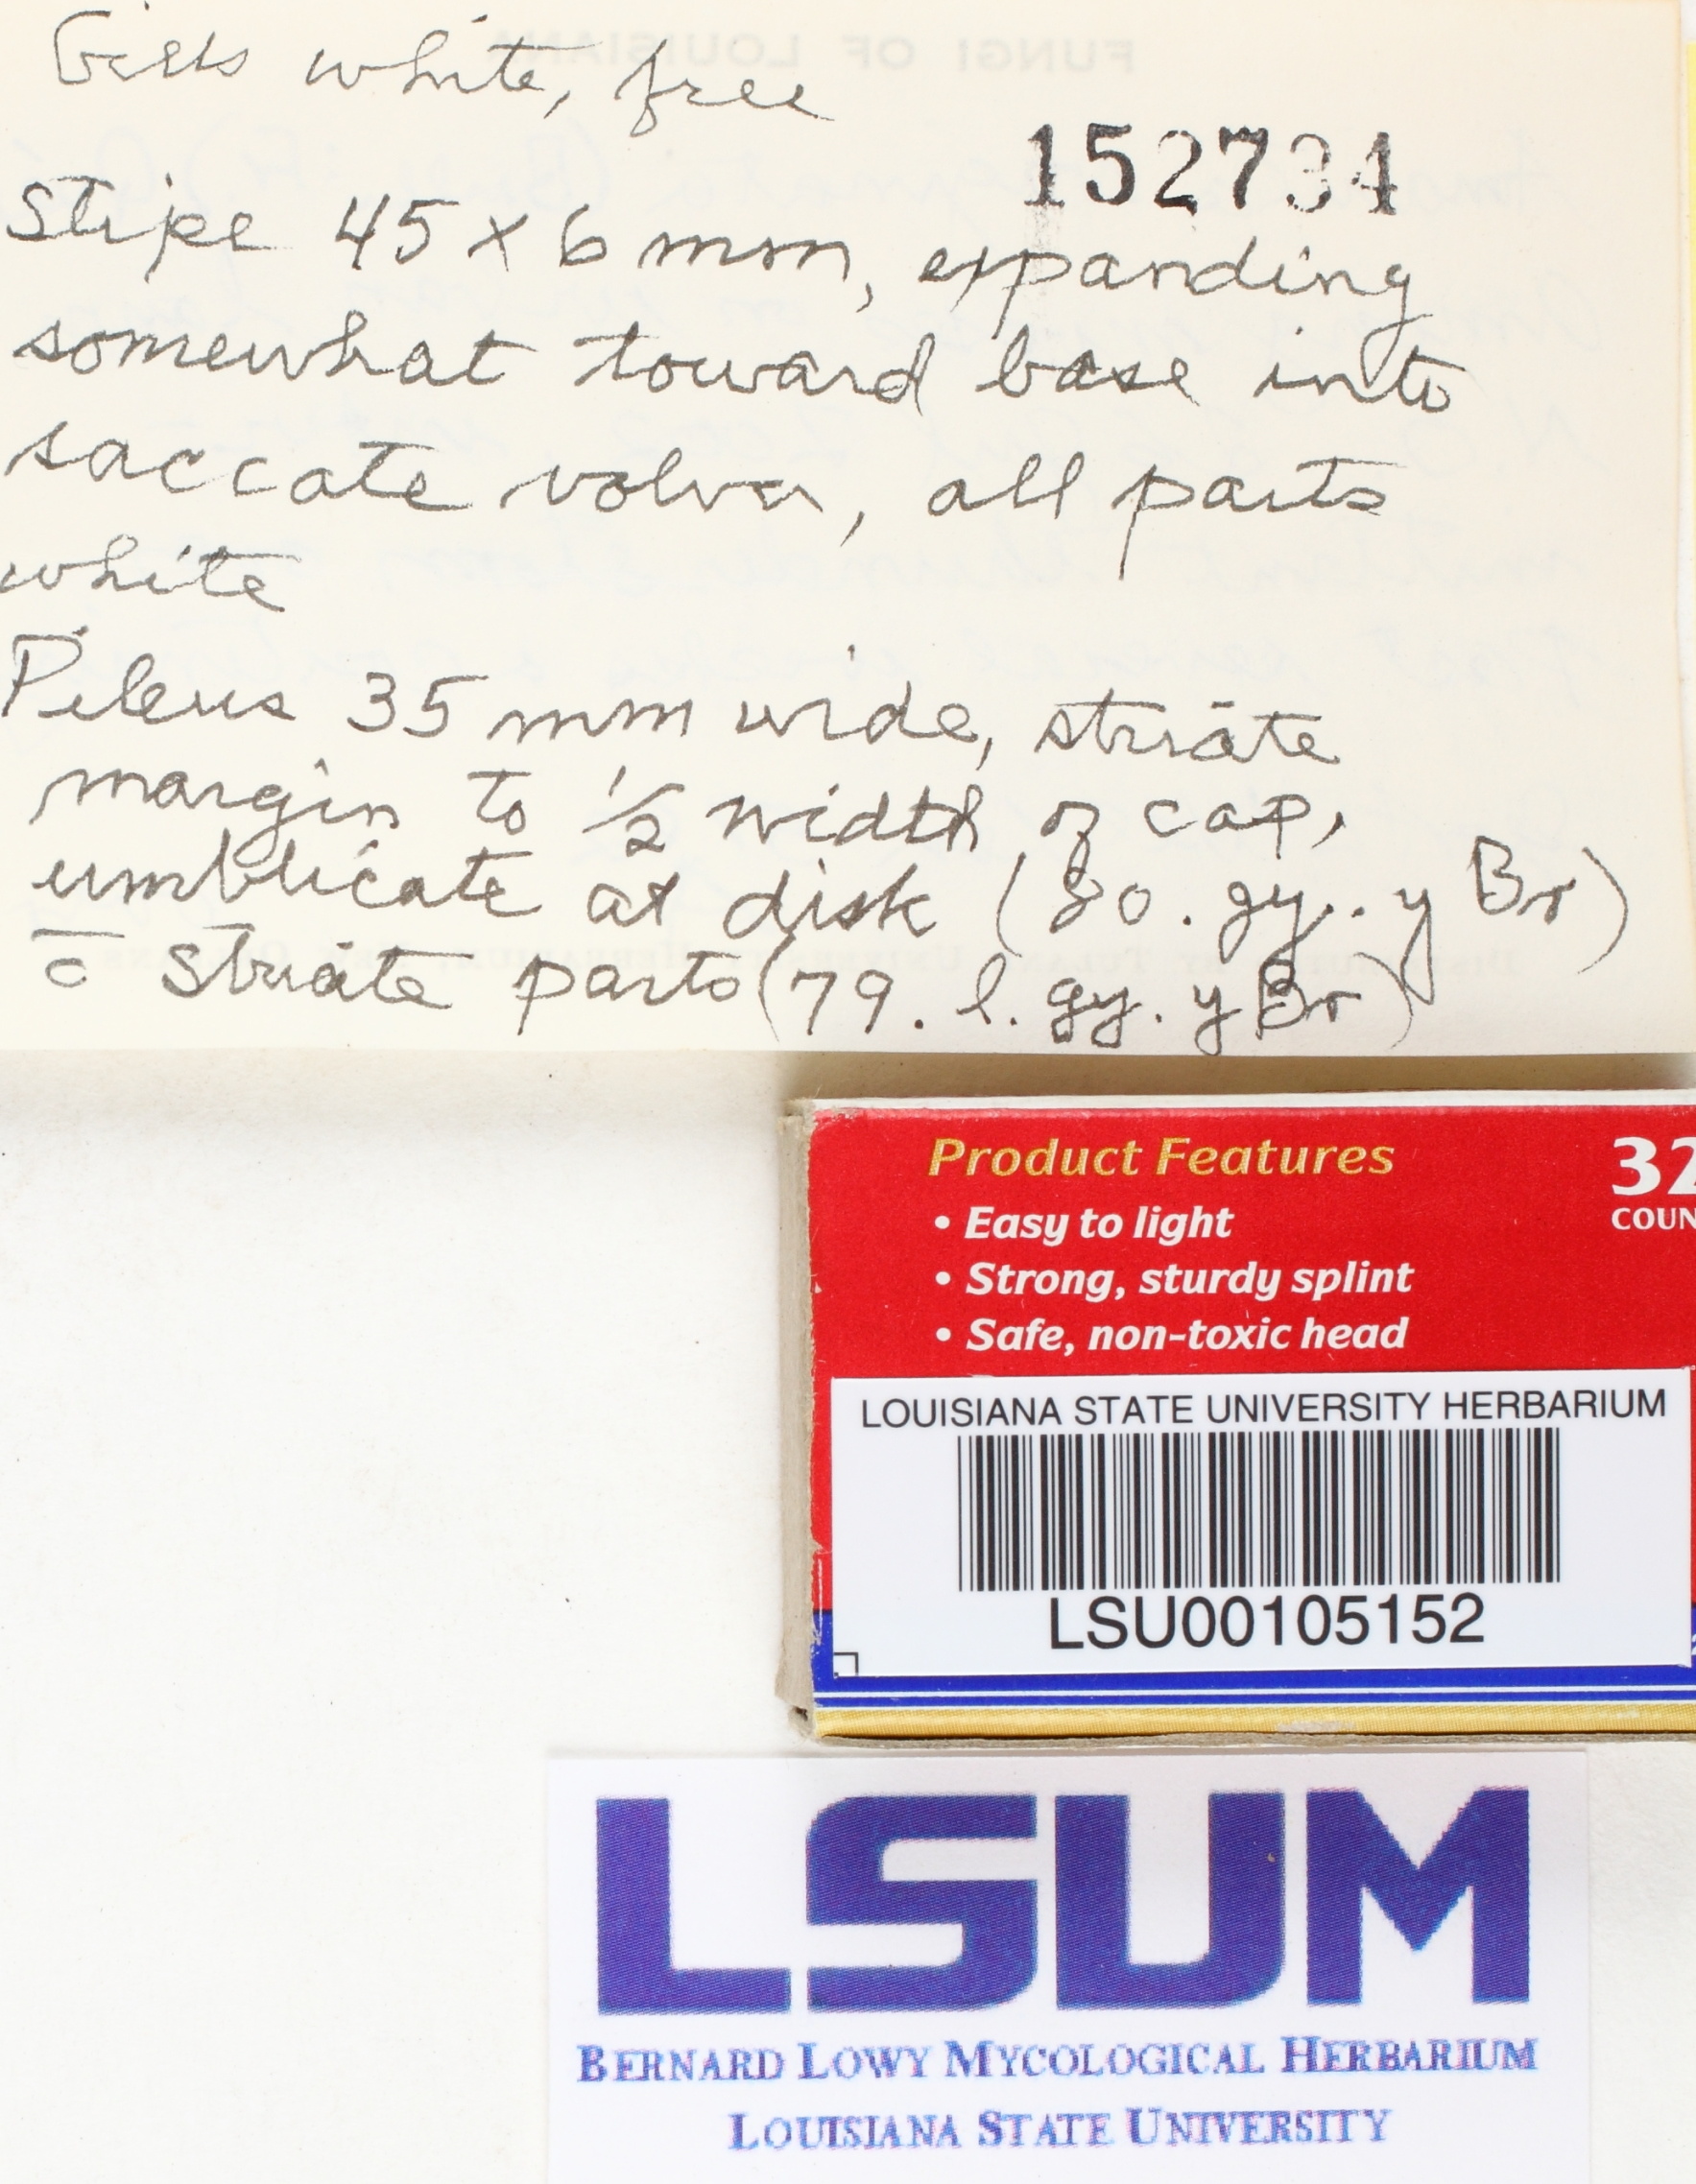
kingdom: Fungi
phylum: Basidiomycota
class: Agaricomycetes
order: Agaricales
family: Amanitaceae
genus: Amanita
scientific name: Amanita vaginata
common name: Grisette
